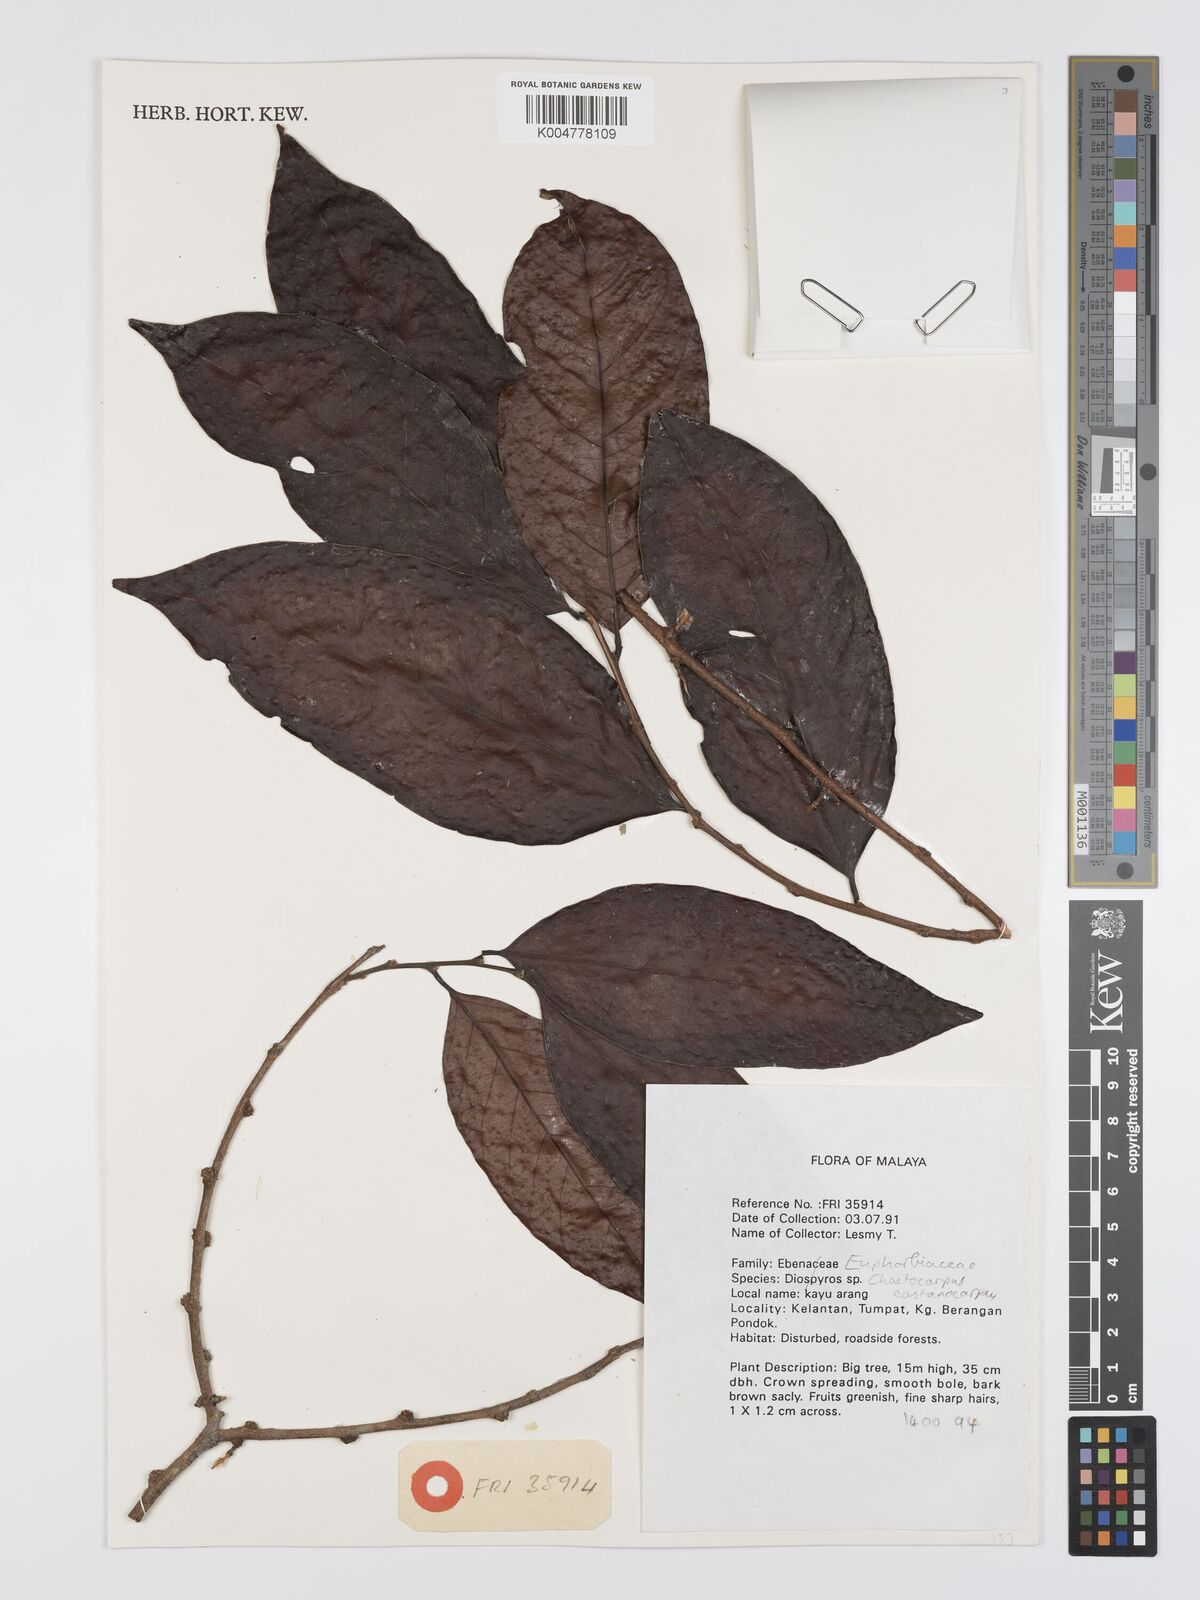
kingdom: Plantae
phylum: Tracheophyta
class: Magnoliopsida
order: Malpighiales
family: Peraceae
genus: Chaetocarpus
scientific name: Chaetocarpus castanocarpus
